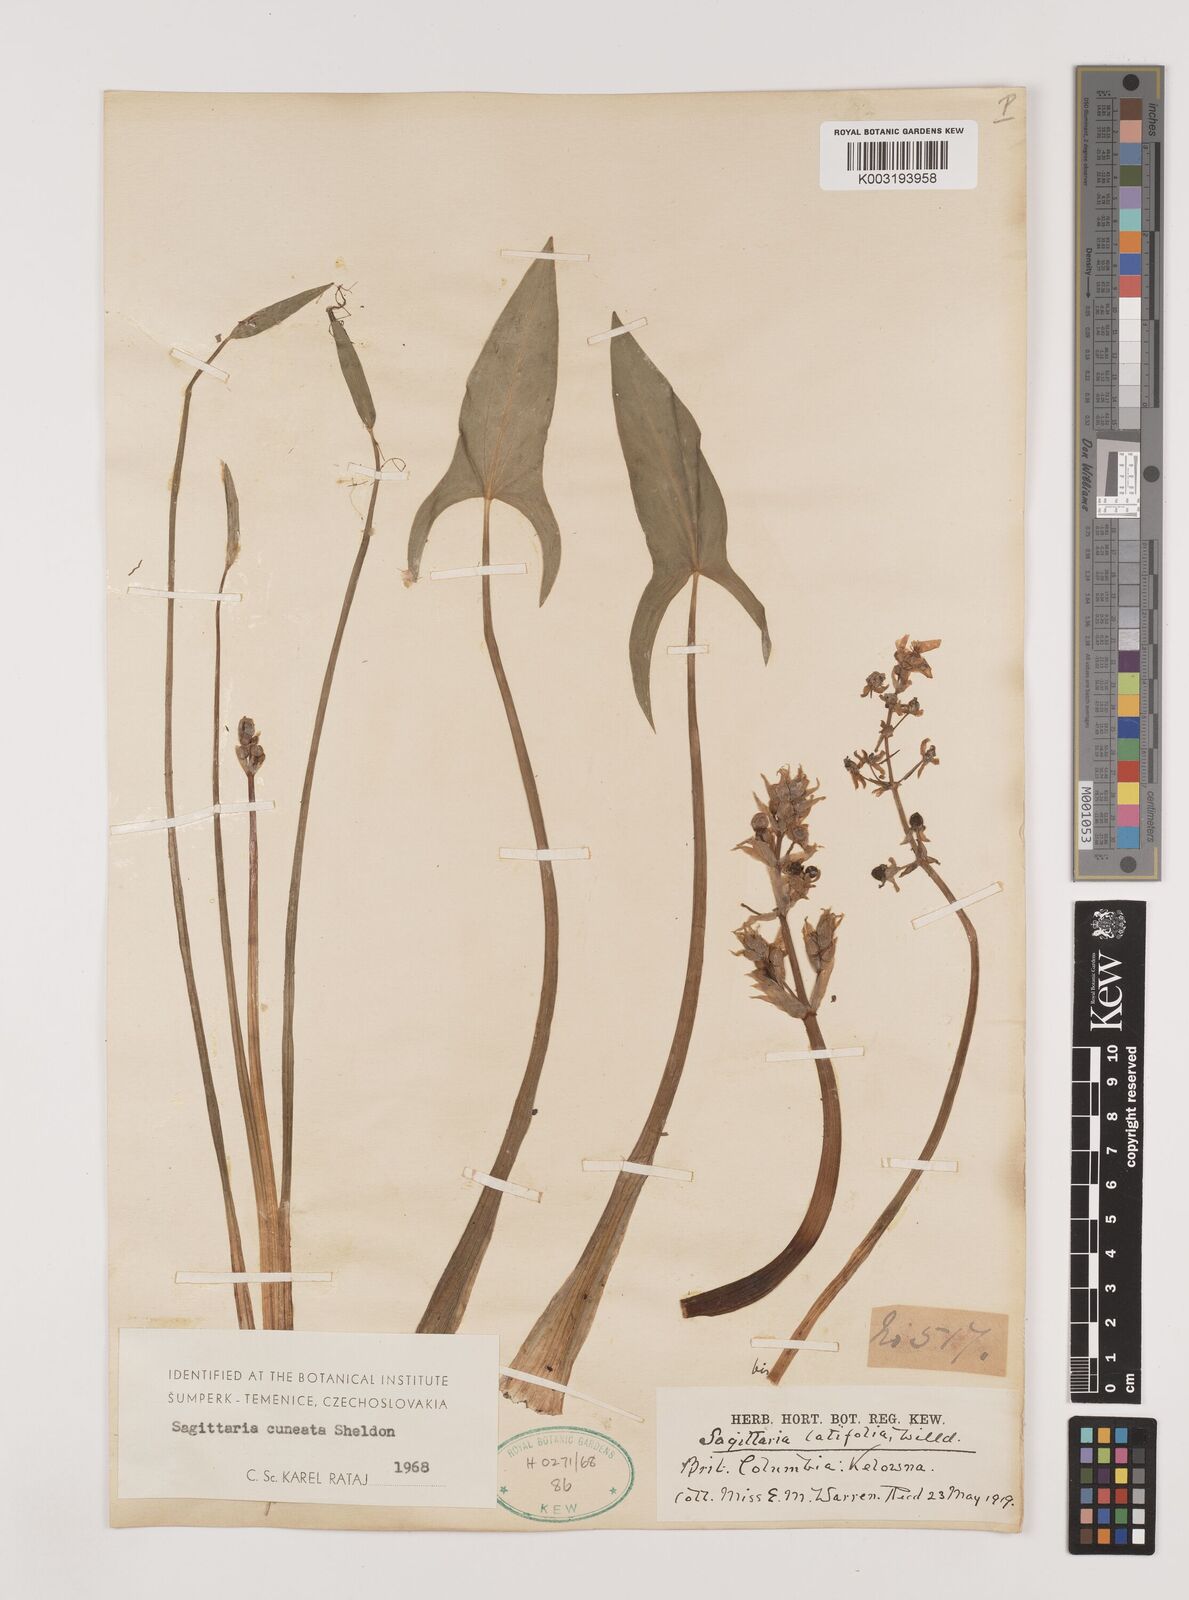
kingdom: Plantae
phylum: Tracheophyta
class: Liliopsida
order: Alismatales
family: Alismataceae
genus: Sagittaria
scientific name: Sagittaria cuneata
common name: Northern arrowhead
